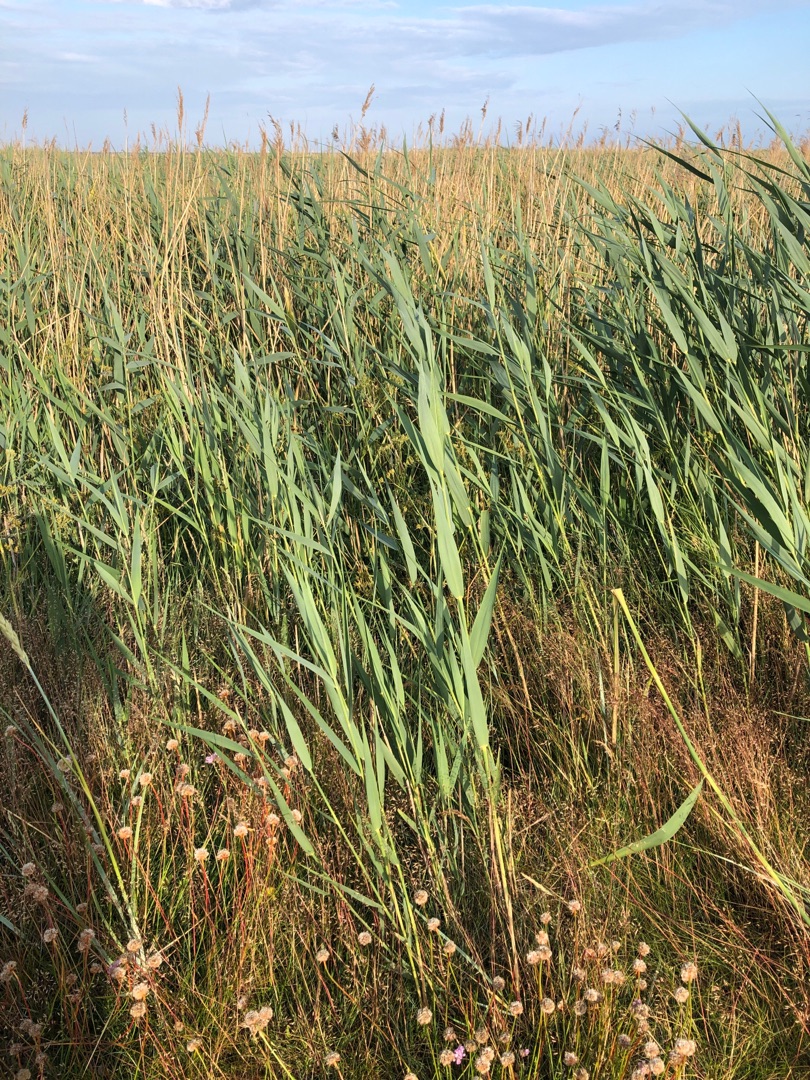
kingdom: Plantae
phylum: Tracheophyta
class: Liliopsida
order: Poales
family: Poaceae
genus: Phragmites
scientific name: Phragmites australis
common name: Tagrør
